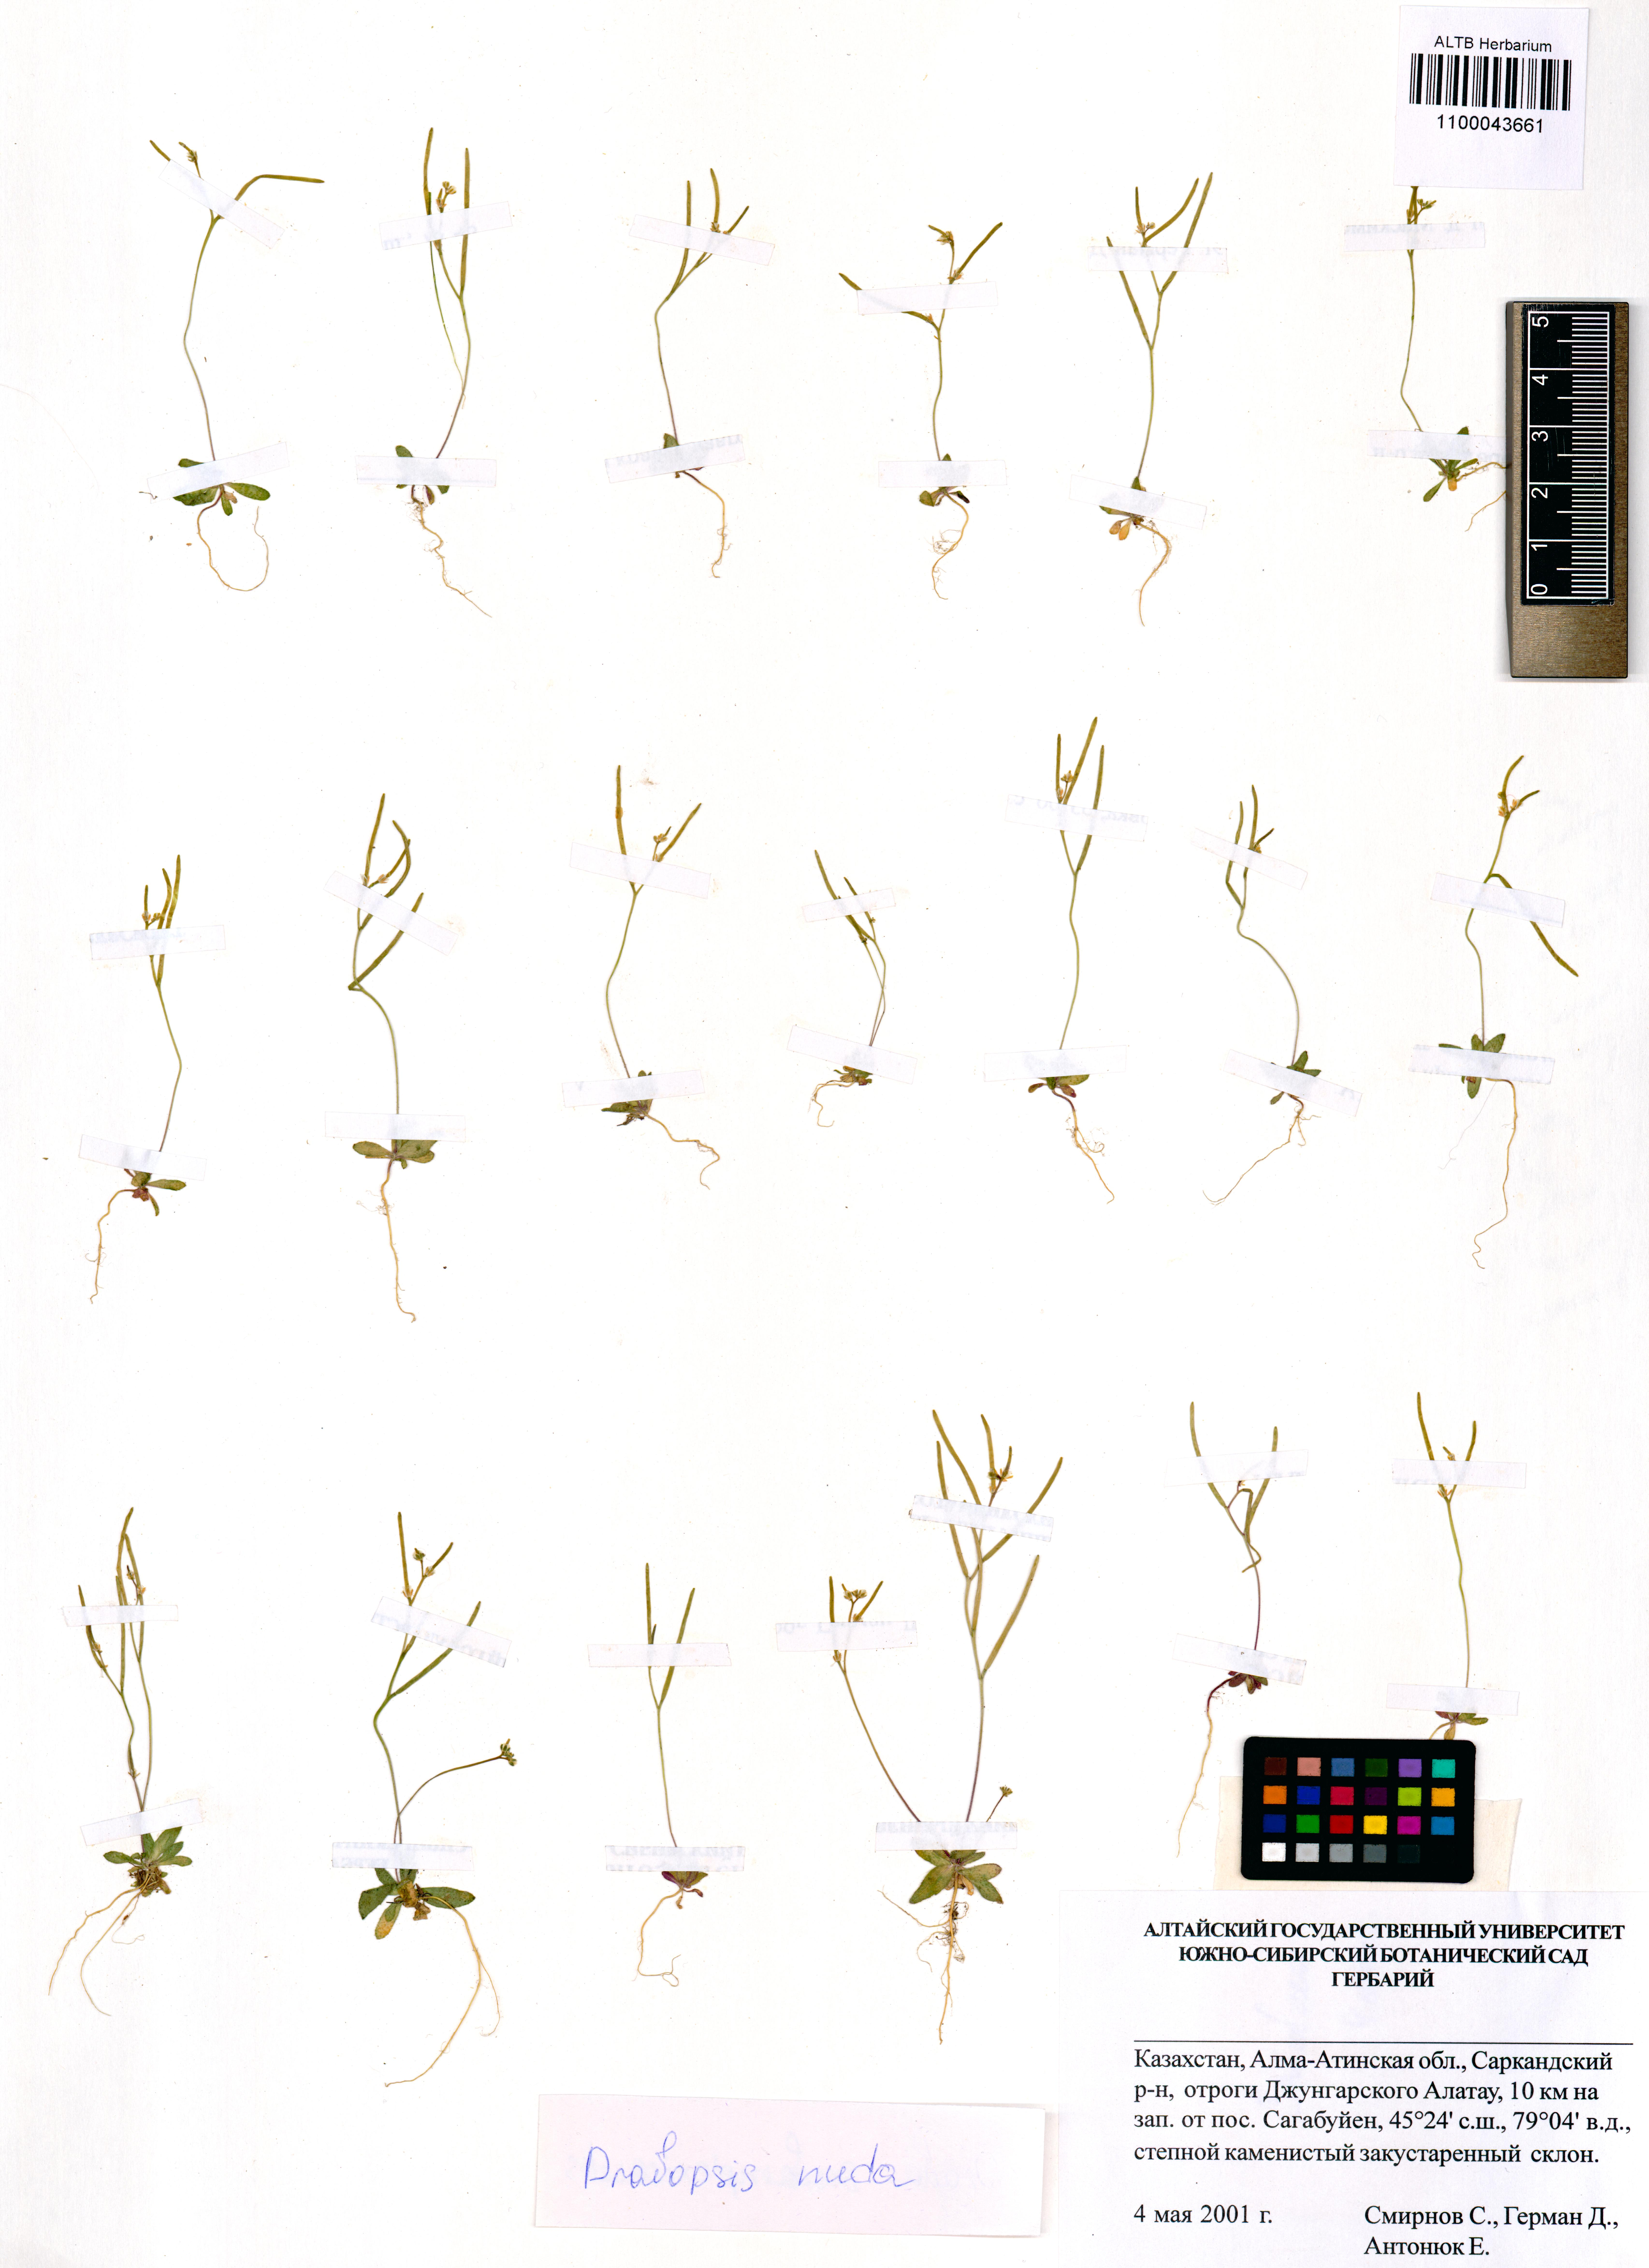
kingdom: Plantae
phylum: Tracheophyta
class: Magnoliopsida
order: Brassicales
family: Brassicaceae
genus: Draba
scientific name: Draba nuda
